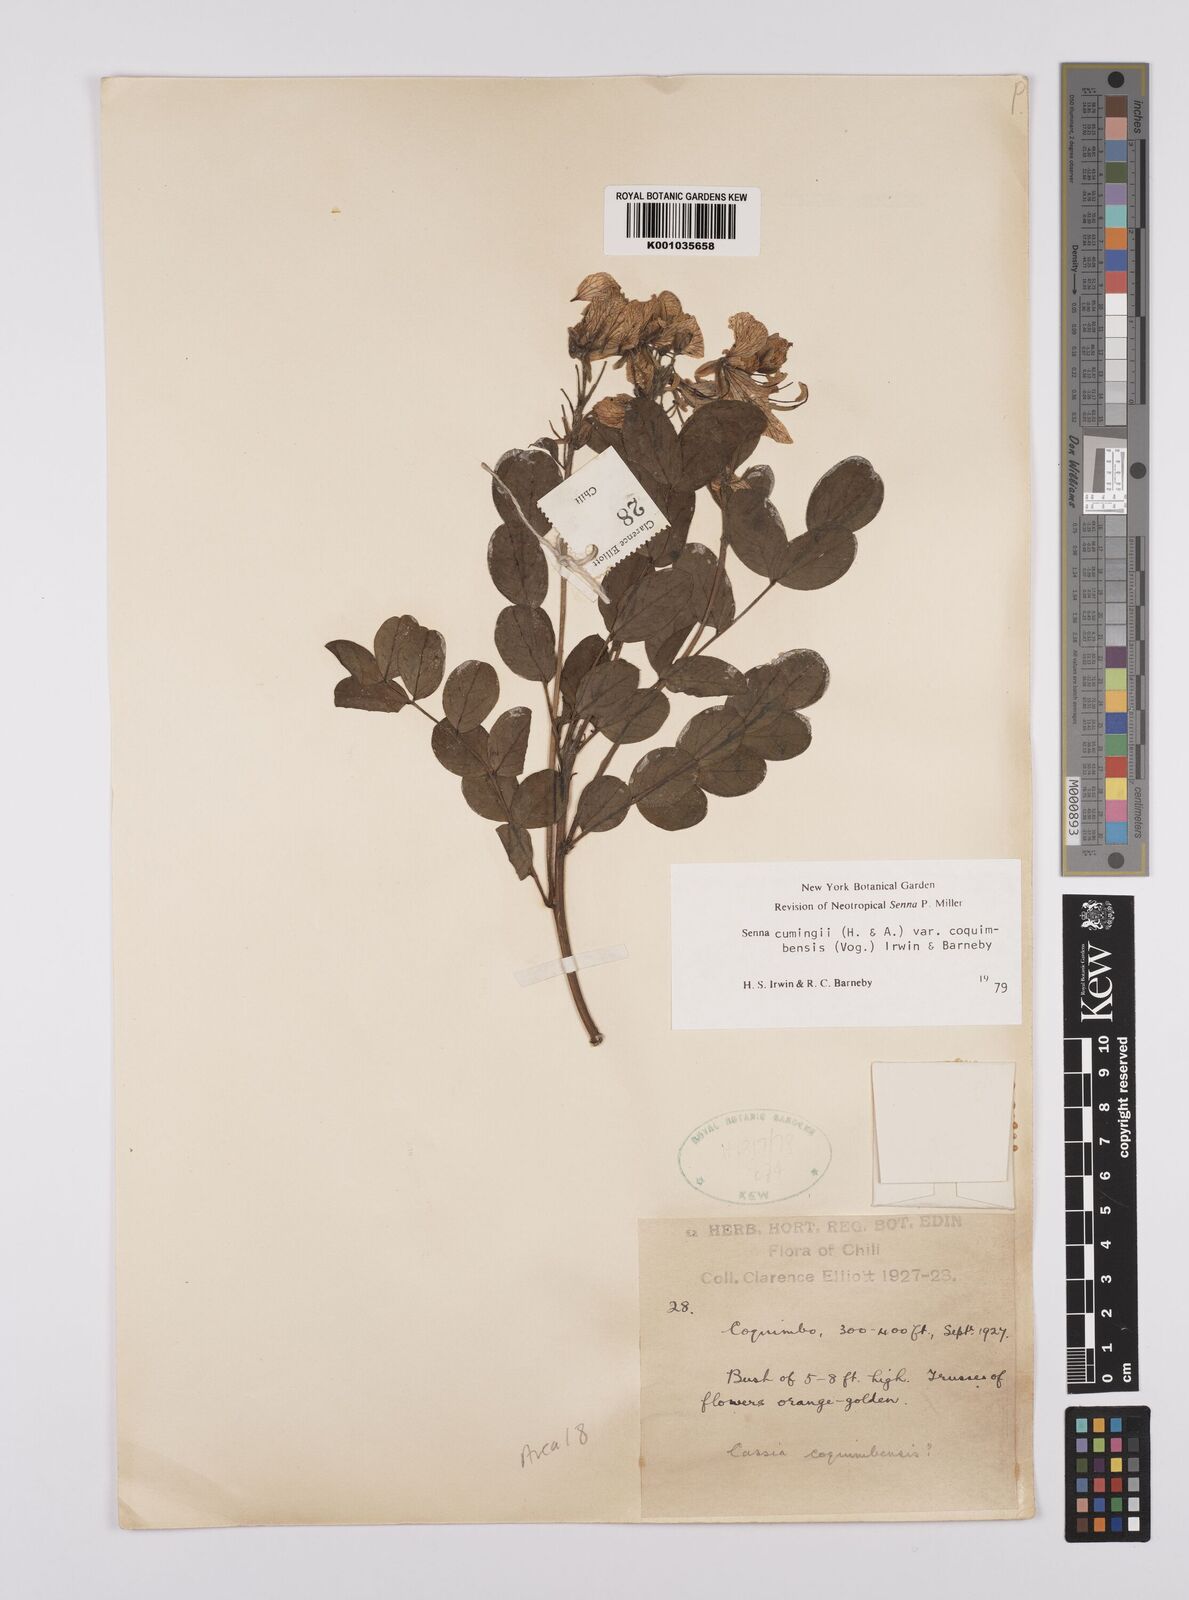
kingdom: Plantae
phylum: Tracheophyta
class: Magnoliopsida
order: Fabales
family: Fabaceae
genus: Senna
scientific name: Senna cumingii
